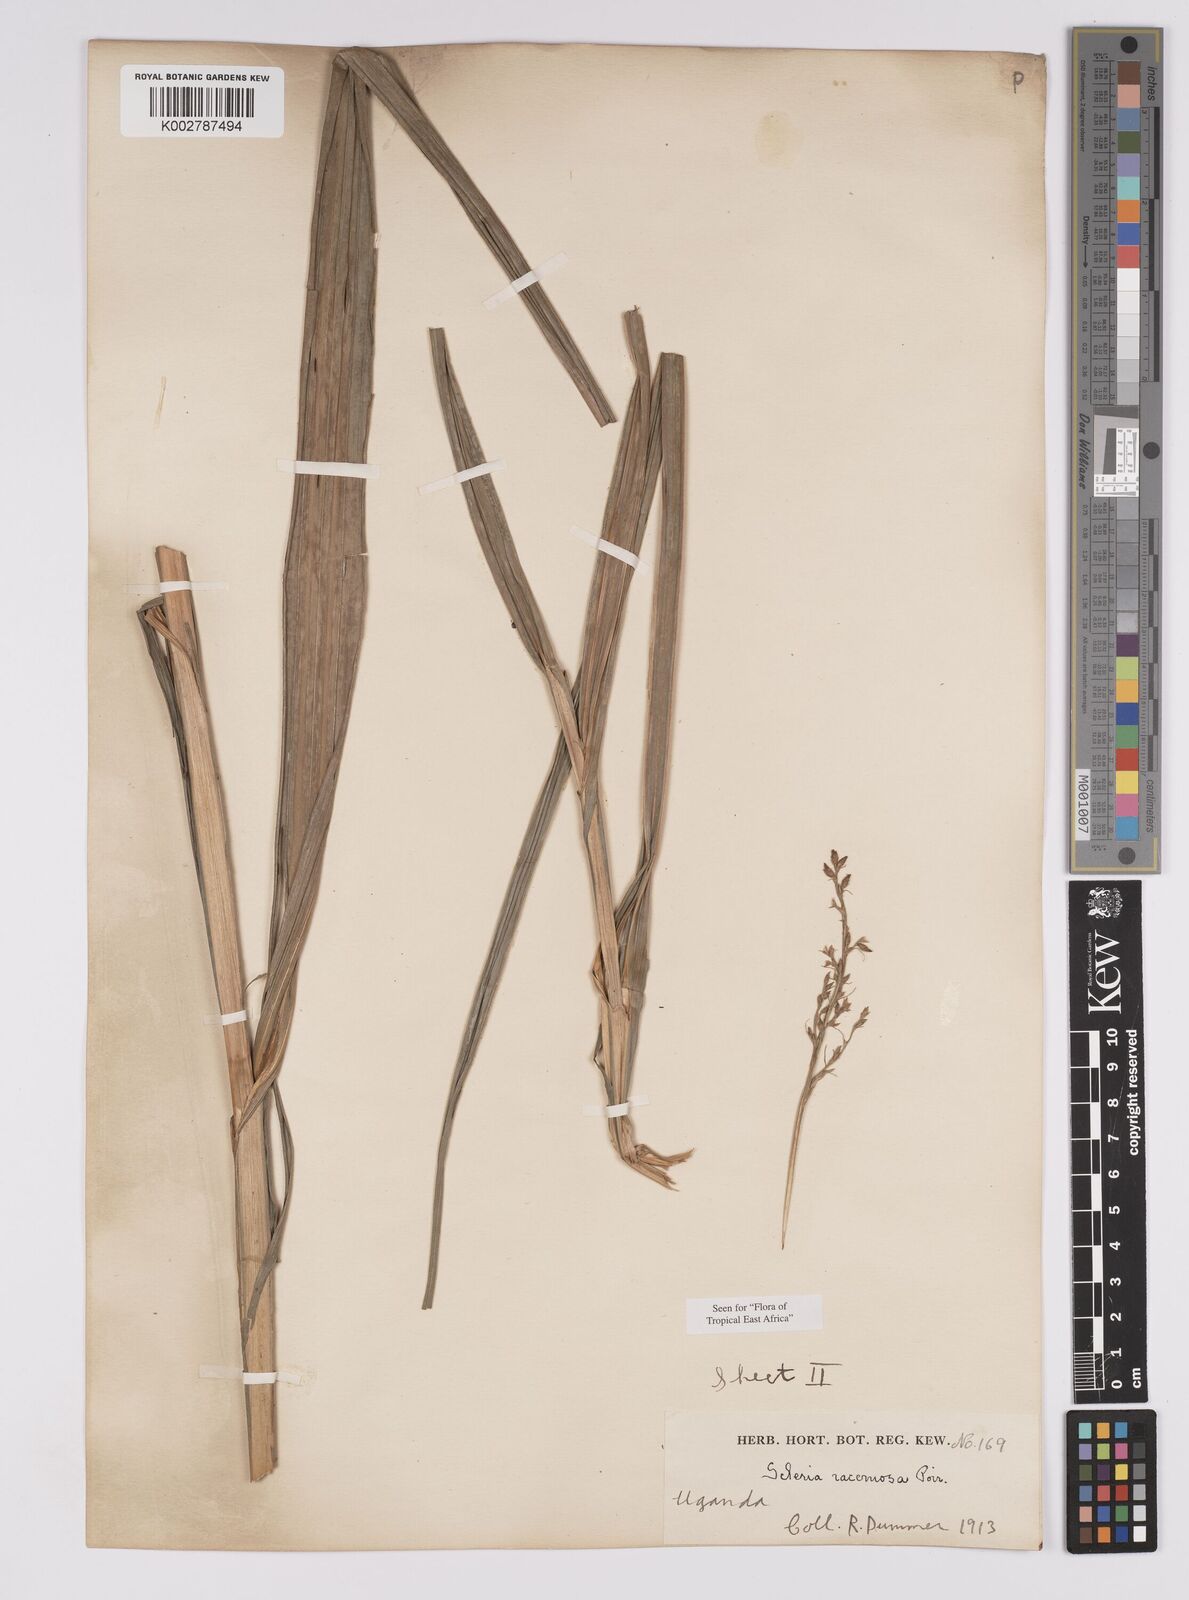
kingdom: Plantae
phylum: Tracheophyta
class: Liliopsida
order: Poales
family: Cyperaceae
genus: Scleria
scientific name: Scleria racemosa
